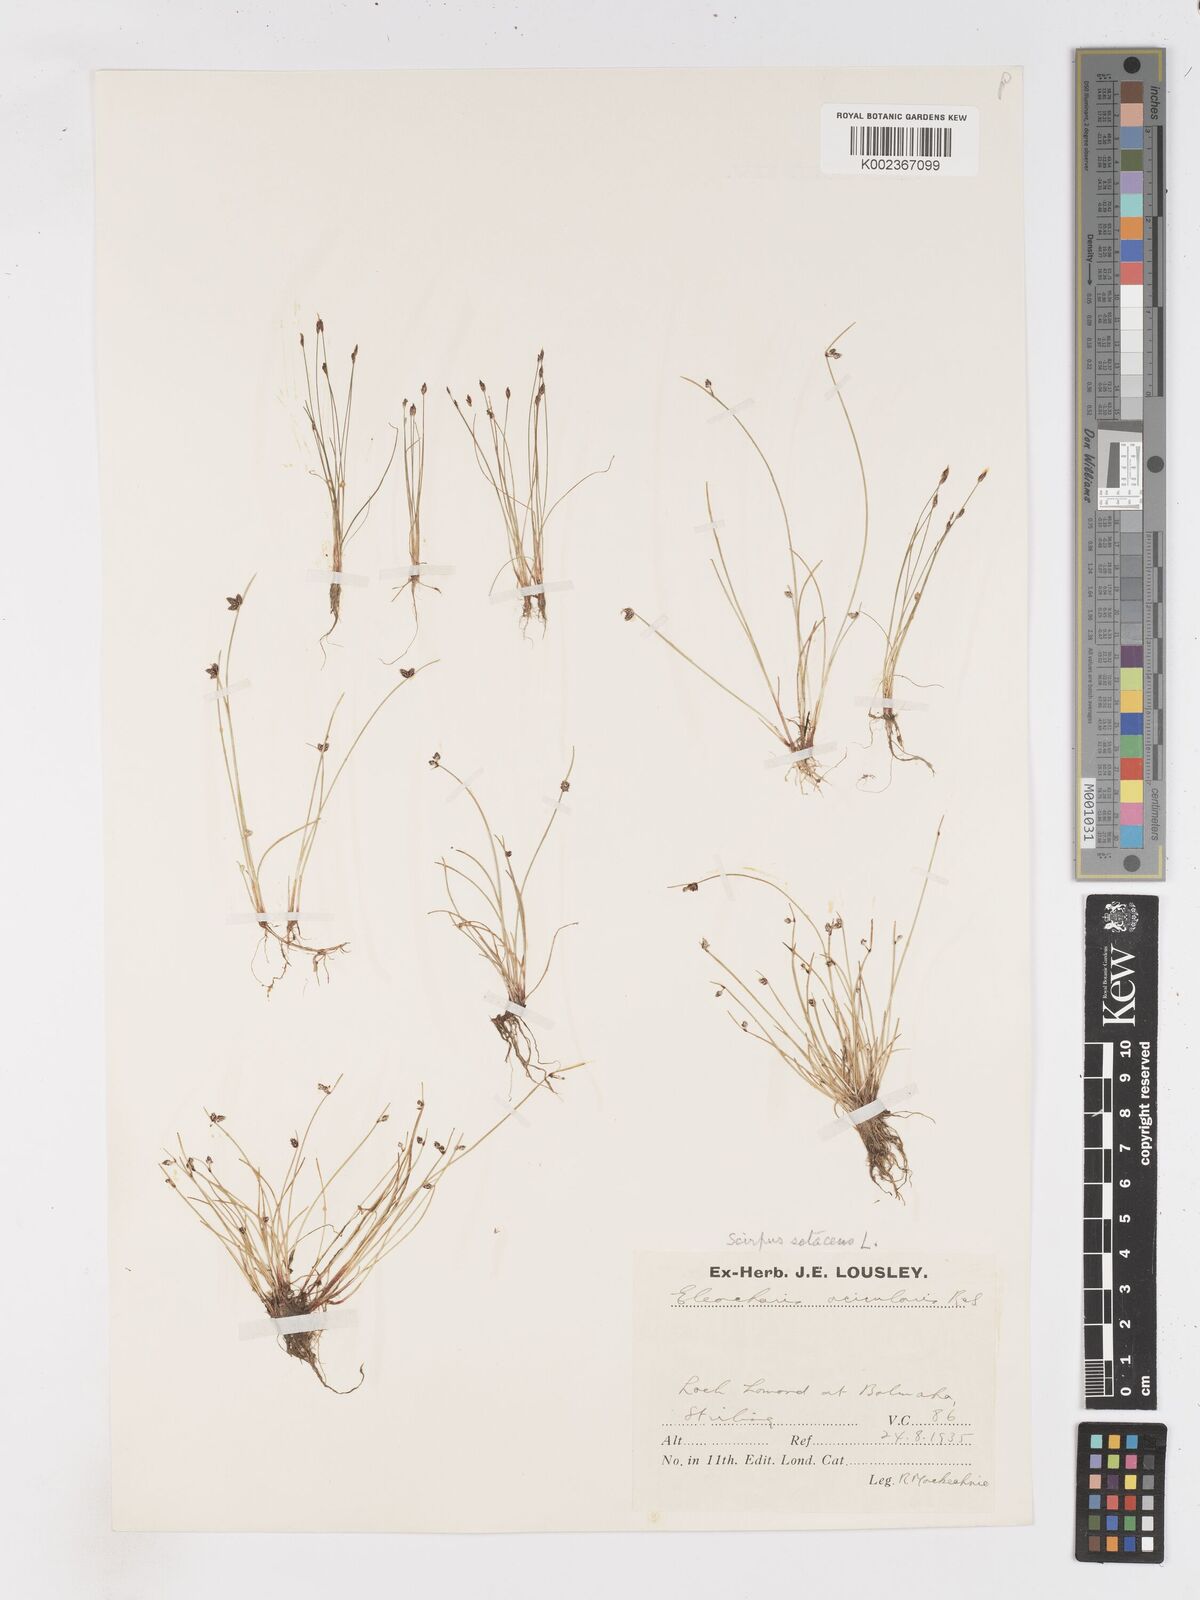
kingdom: Plantae
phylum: Tracheophyta
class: Liliopsida
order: Poales
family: Cyperaceae
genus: Isolepis
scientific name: Isolepis setacea
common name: Bristle club-rush
